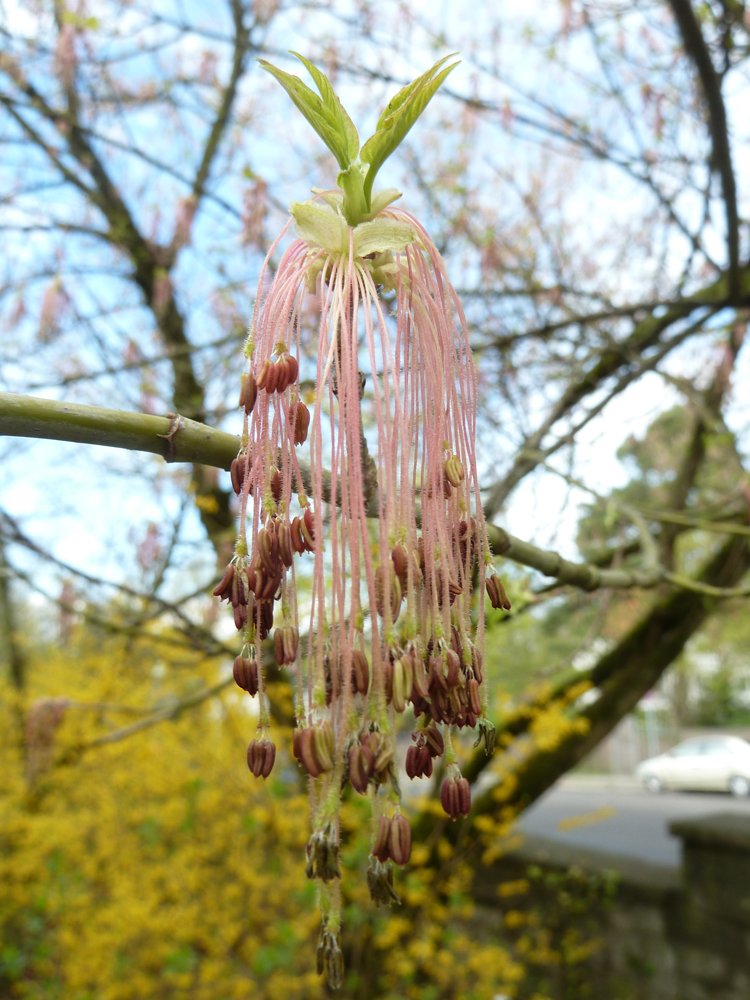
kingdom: Plantae
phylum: Tracheophyta
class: Magnoliopsida
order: Sapindales
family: Sapindaceae
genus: Acer
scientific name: Acer negundo
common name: Ashleaf maple
